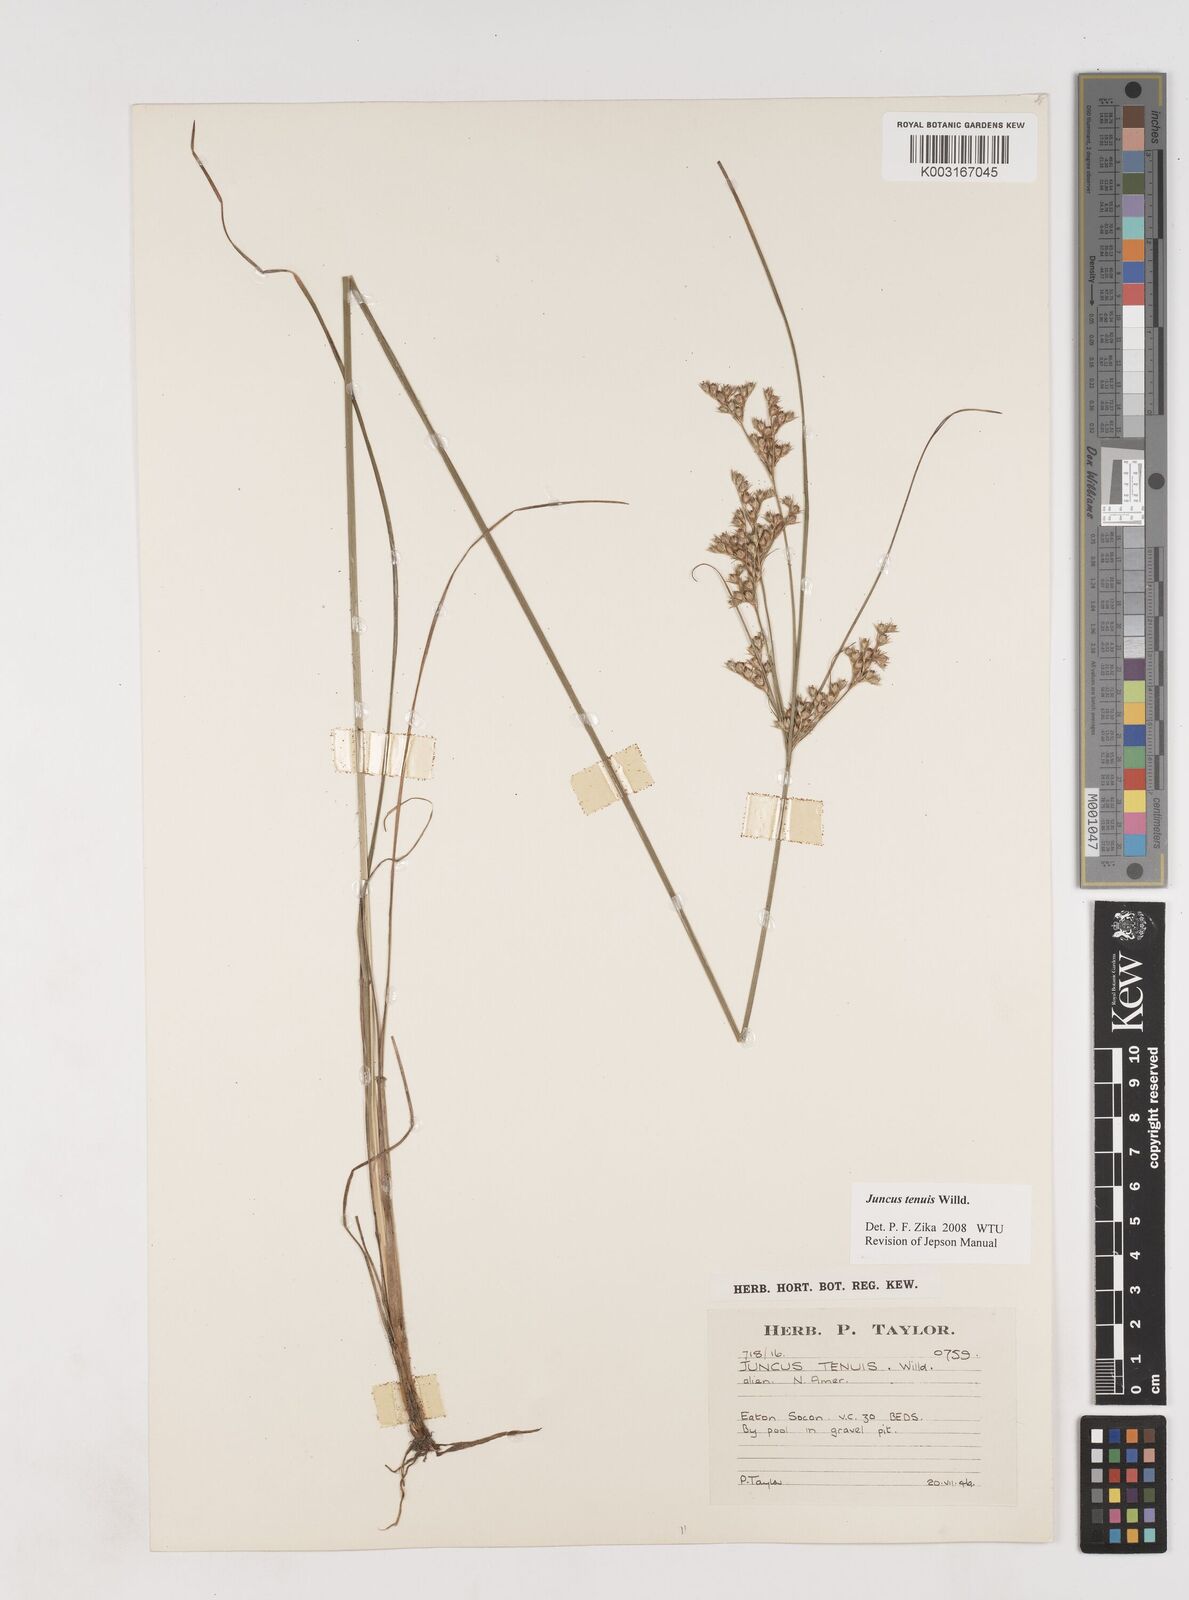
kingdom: Plantae
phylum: Tracheophyta
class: Liliopsida
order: Poales
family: Juncaceae
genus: Juncus
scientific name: Juncus tenuis
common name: Slender rush
